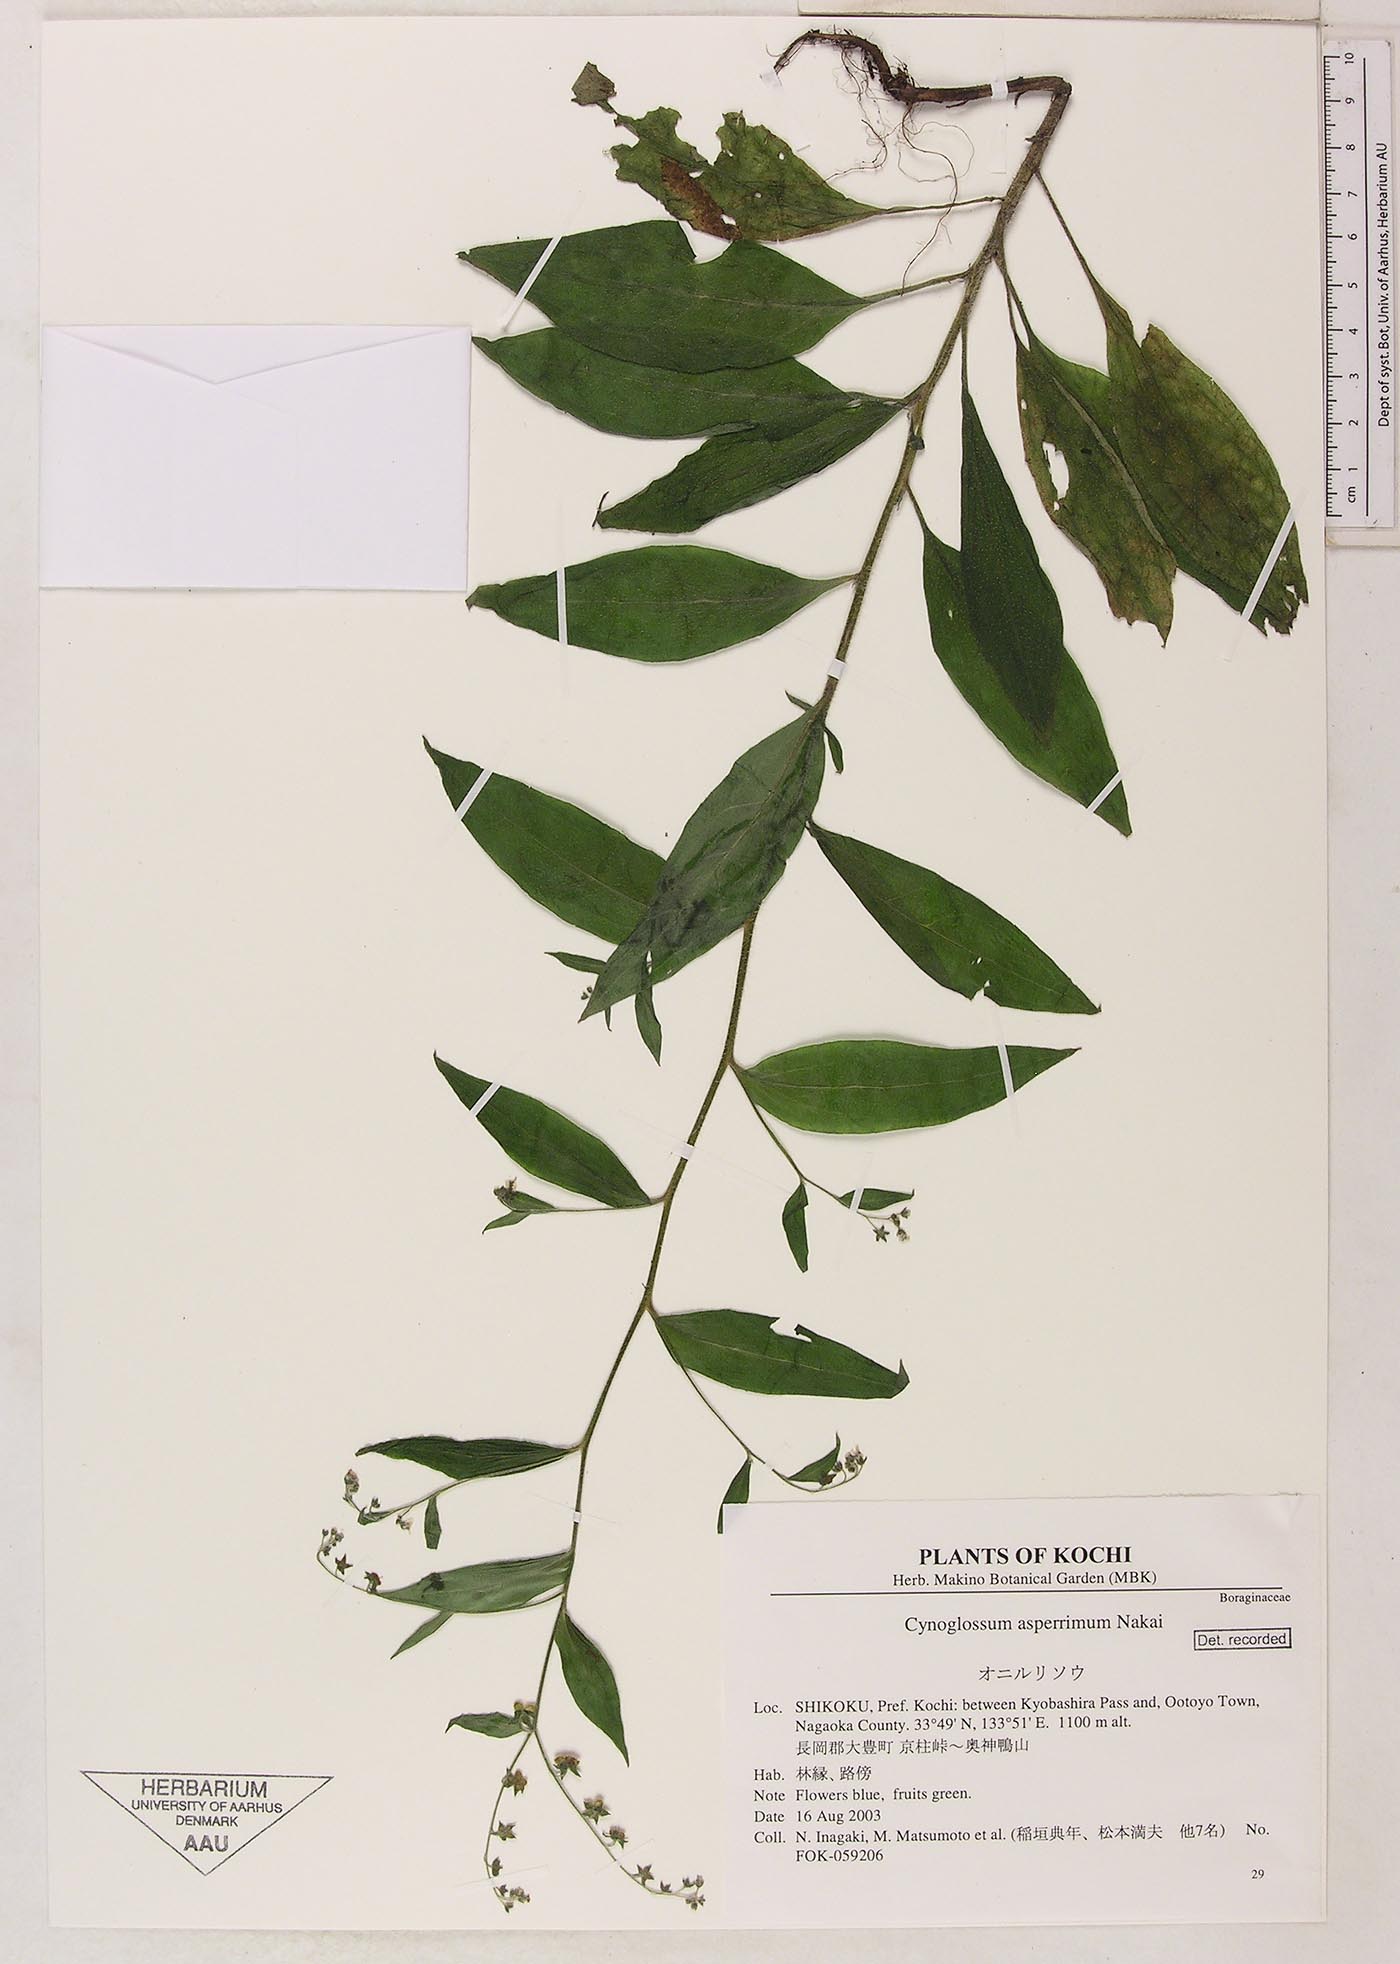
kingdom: Plantae
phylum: Tracheophyta
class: Magnoliopsida
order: Boraginales
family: Boraginaceae
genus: Paracynoglossum
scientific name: Paracynoglossum asperrimum
